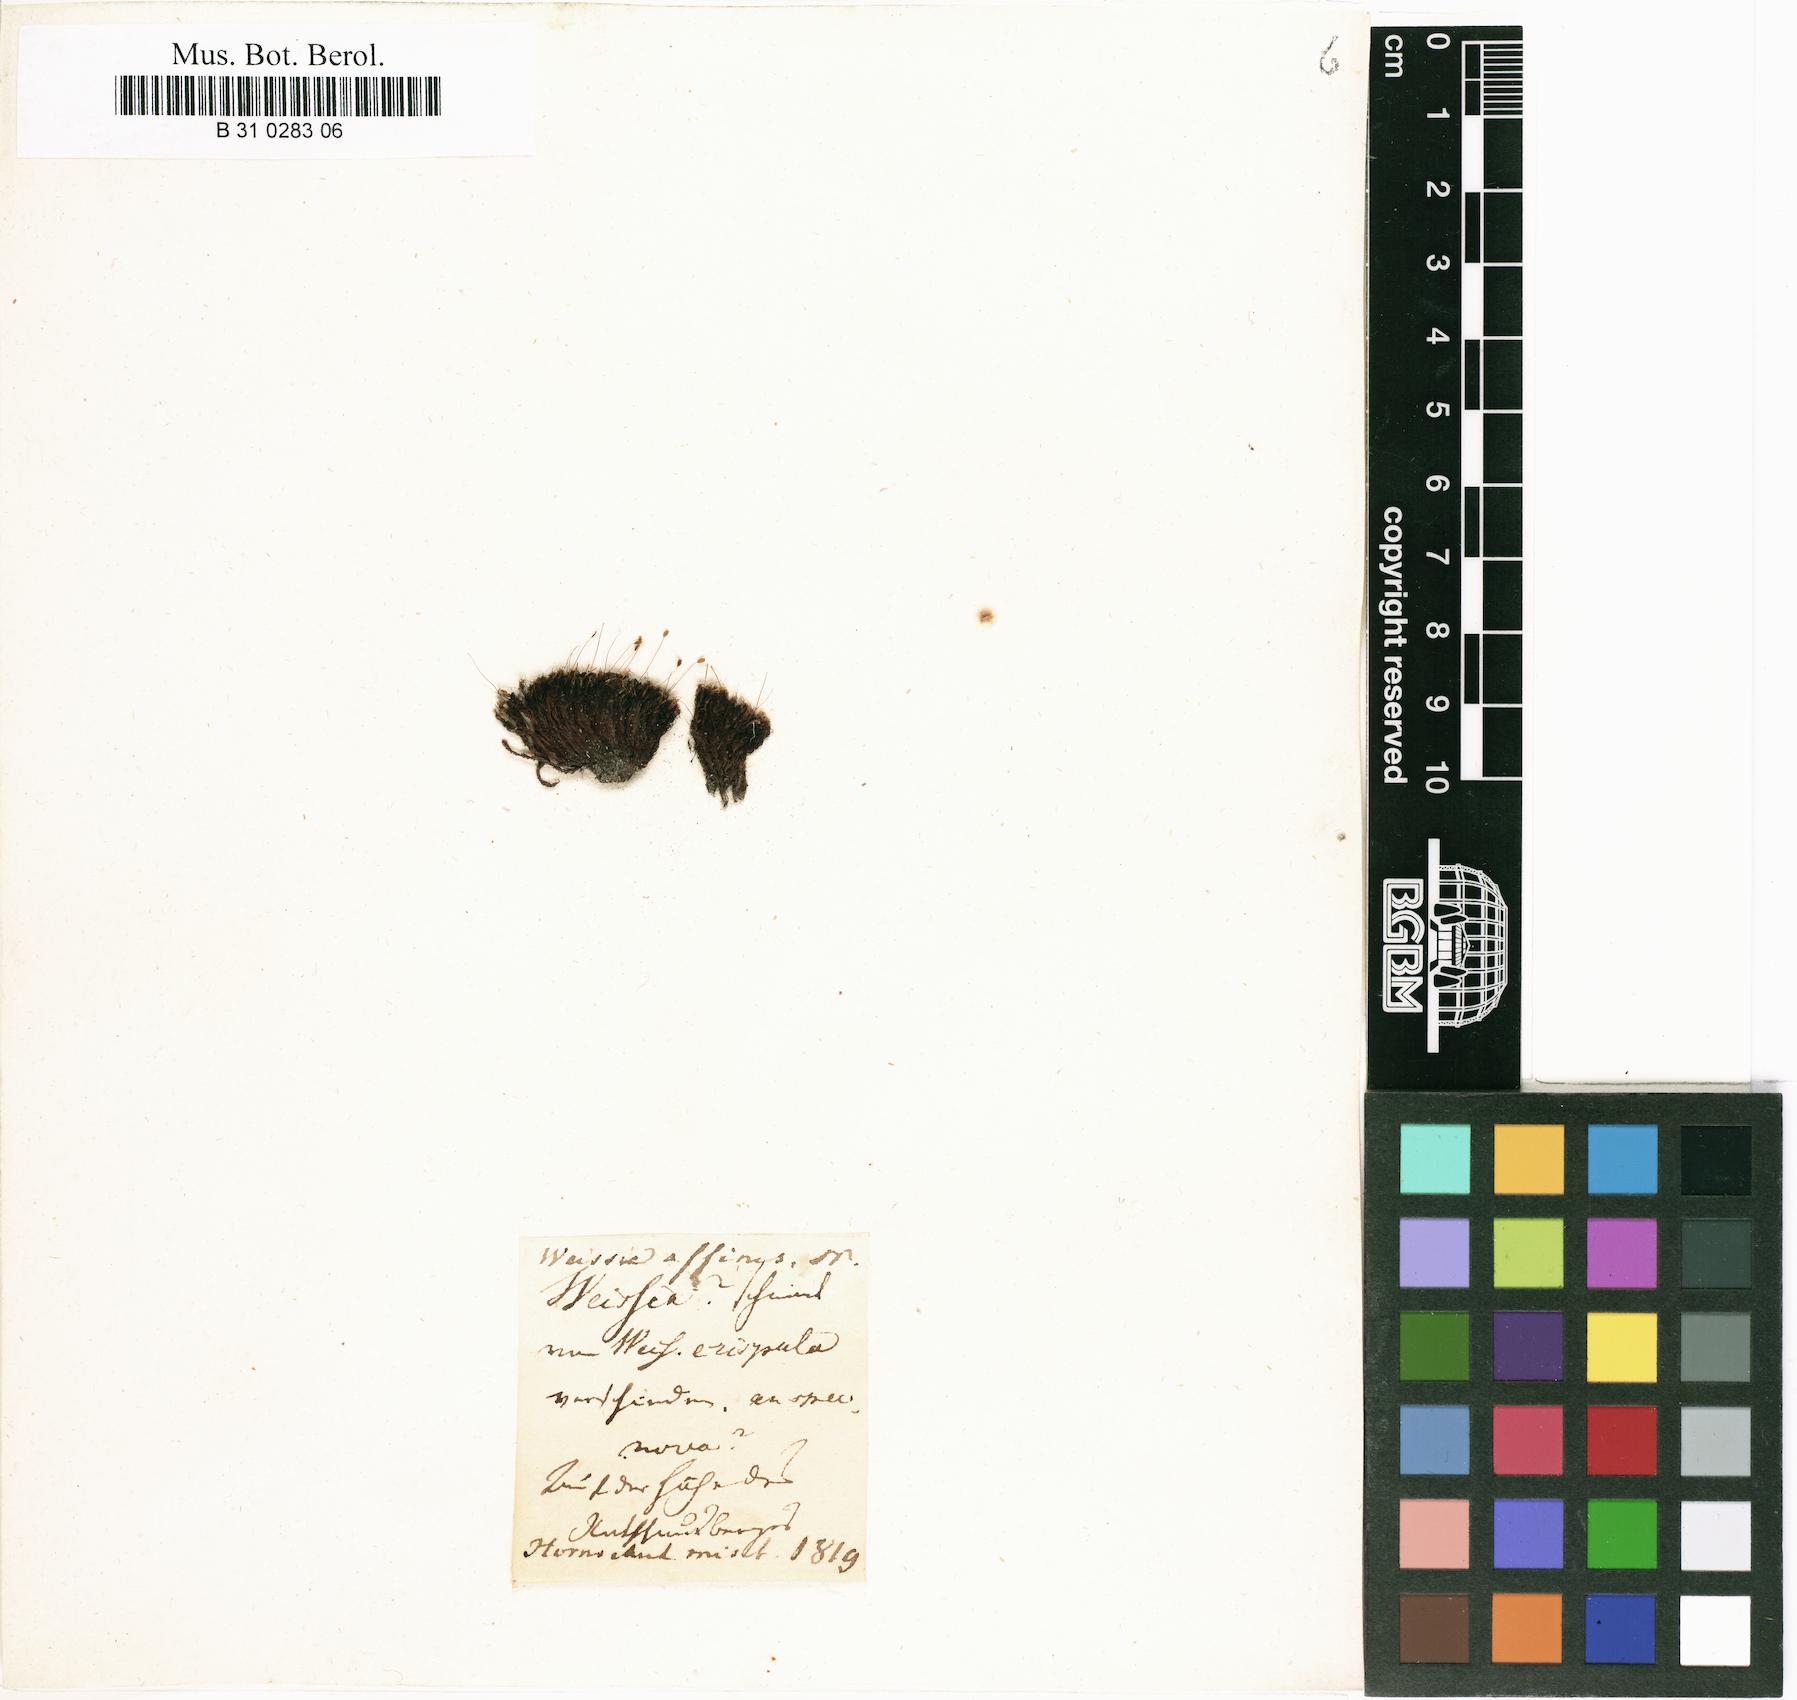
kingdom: Plantae
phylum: Bryophyta
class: Bryopsida
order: Dicranales
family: Rhabdoweisiaceae
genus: Dicranoweisia
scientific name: Dicranoweisia cirrata
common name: Common pincushion
